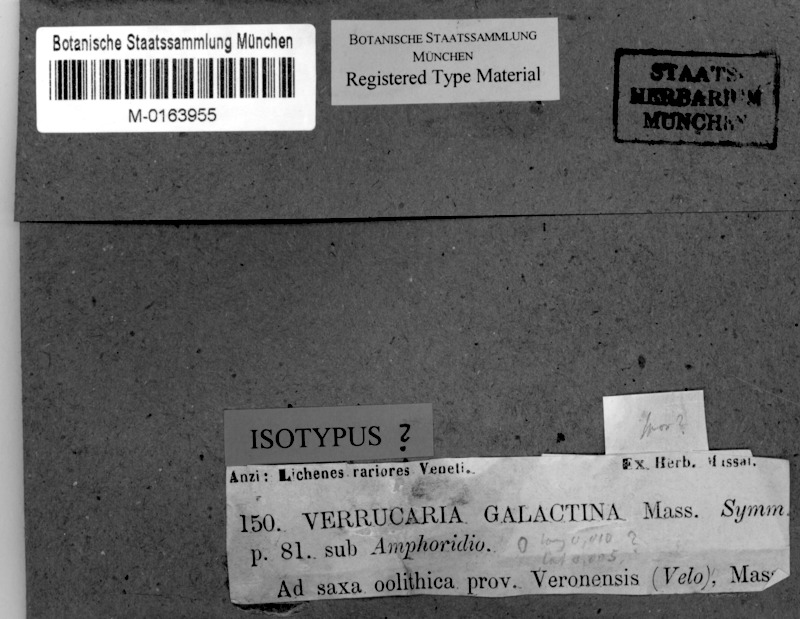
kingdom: Fungi
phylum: Ascomycota
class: Eurotiomycetes
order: Verrucariales
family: Verrucariaceae
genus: Verrucaria
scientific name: Verrucaria galactina
